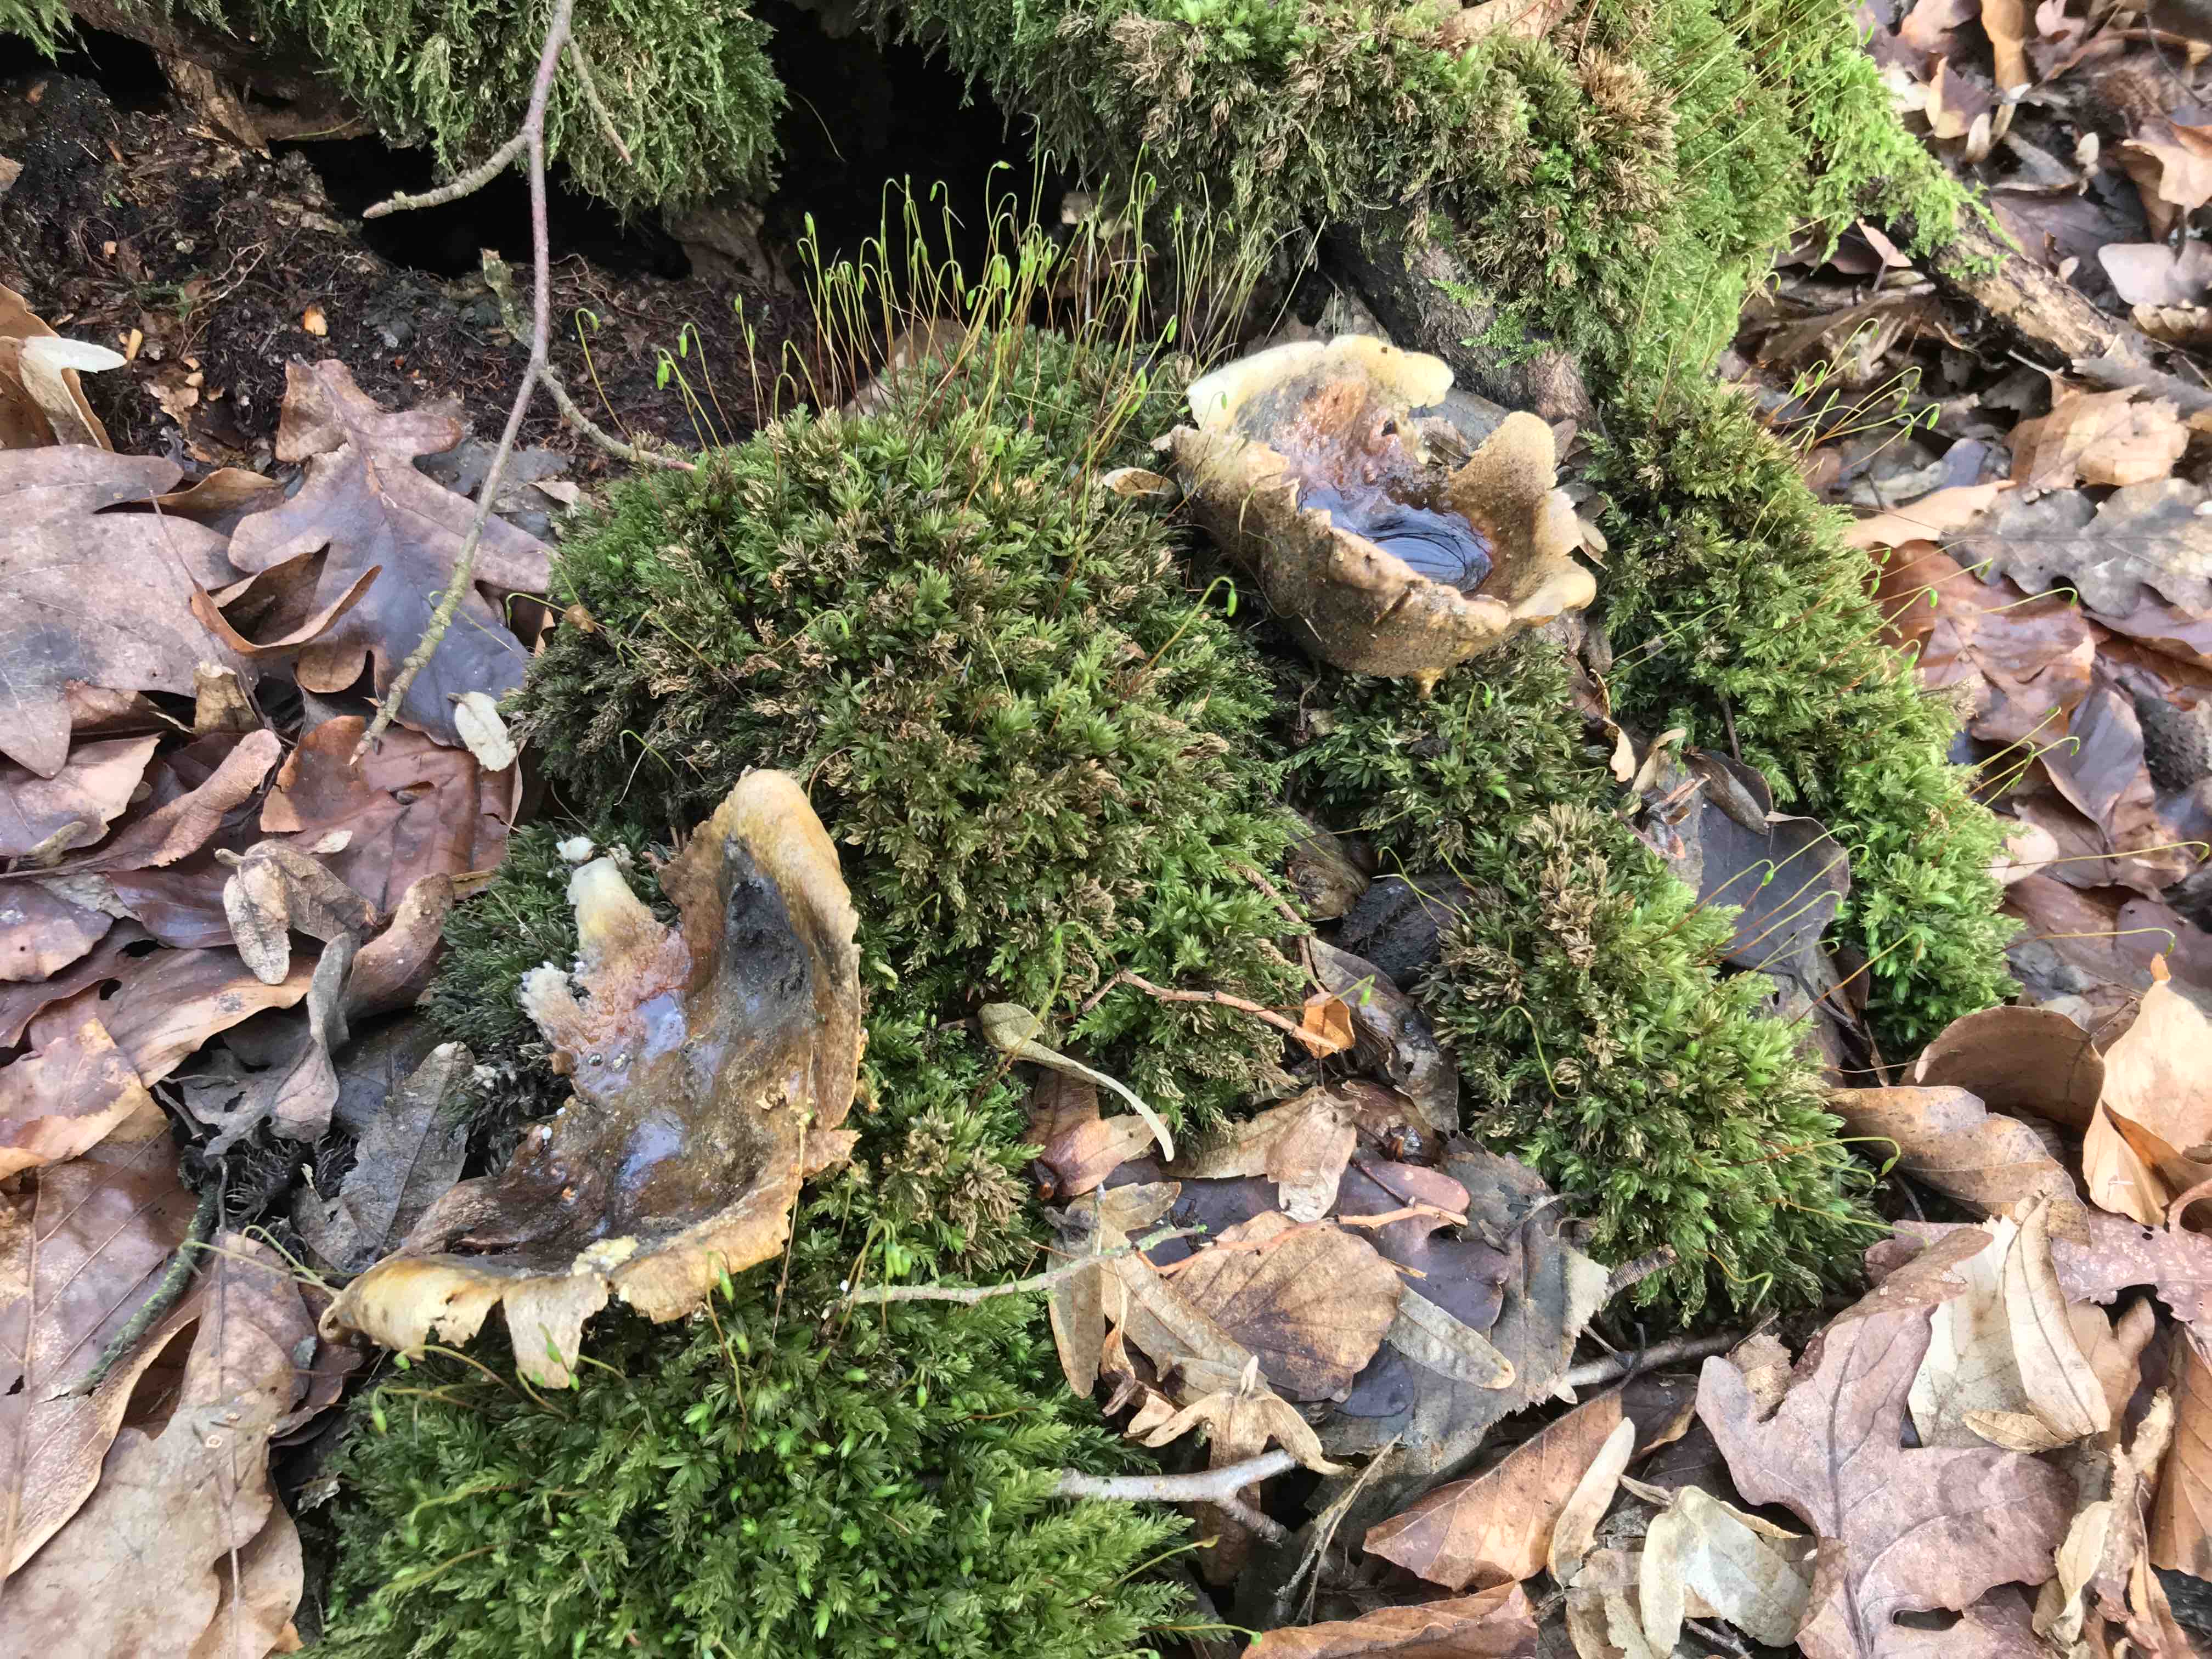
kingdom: Fungi
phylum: Basidiomycota
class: Agaricomycetes
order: Boletales
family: Sclerodermataceae
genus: Scleroderma
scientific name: Scleroderma citrinum
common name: almindelig bruskbold
